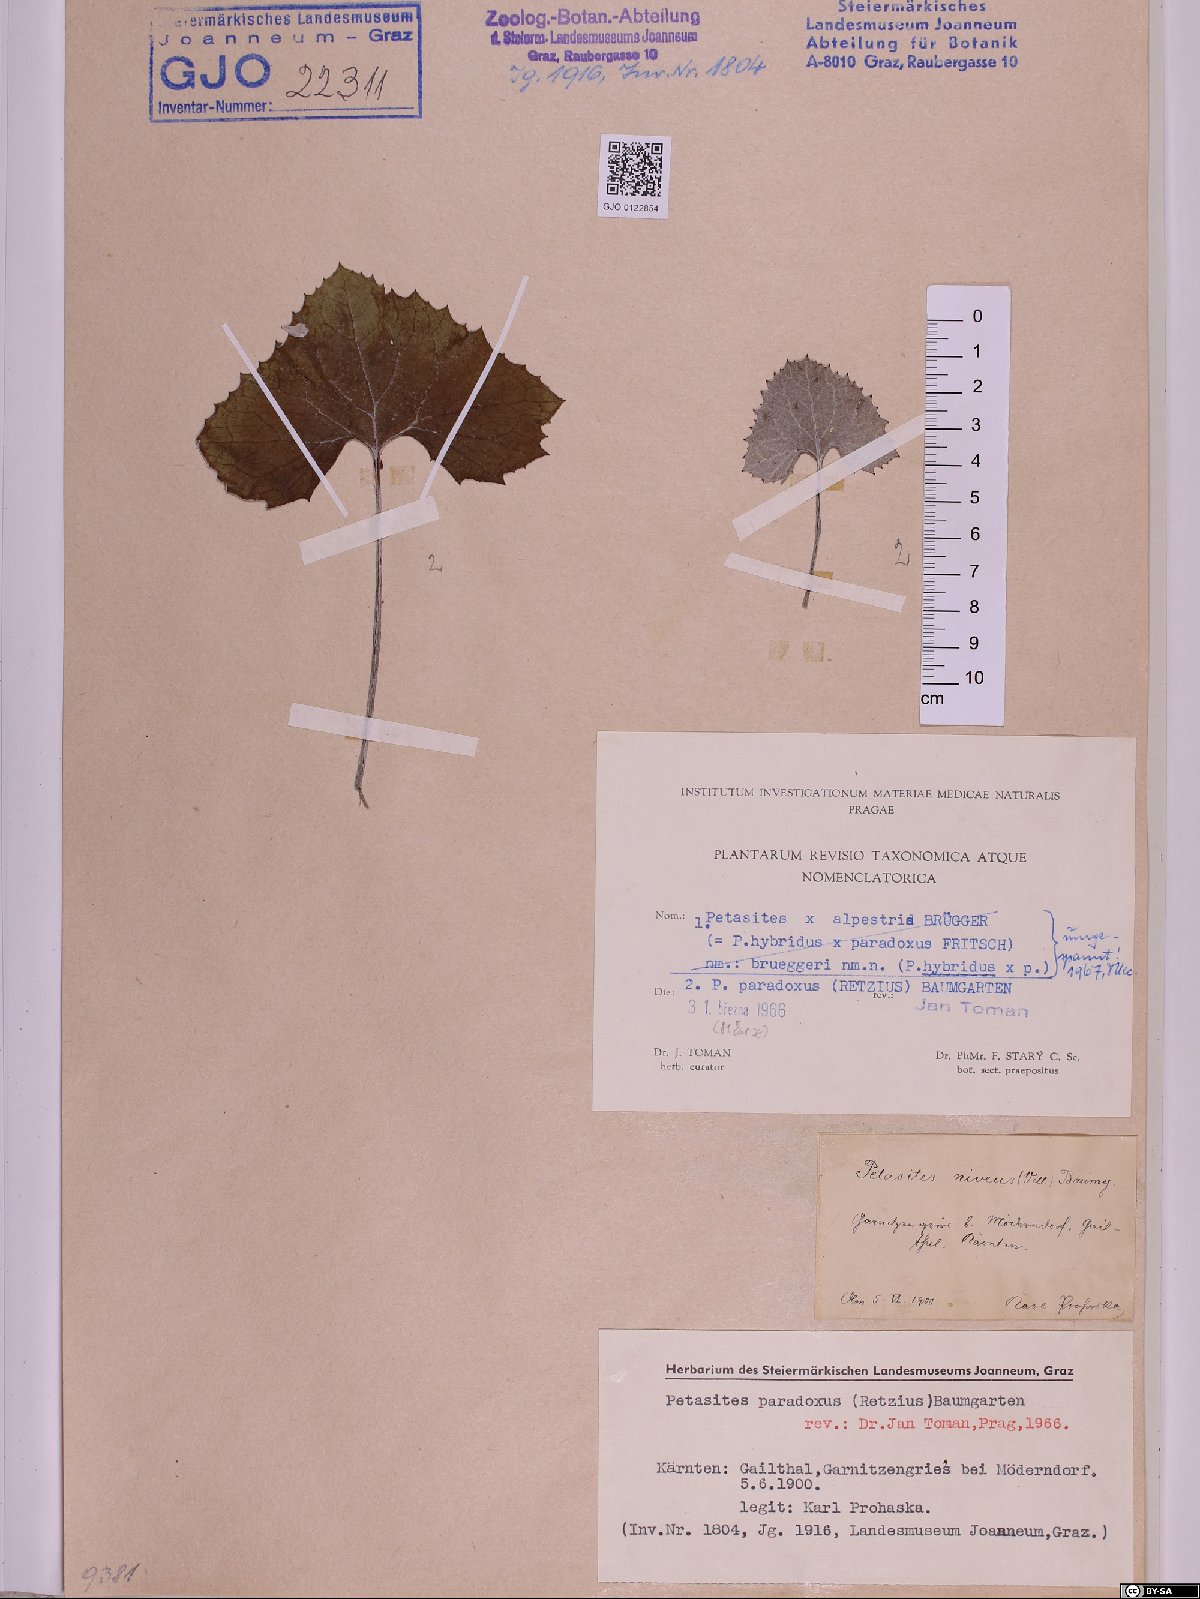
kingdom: Plantae
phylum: Tracheophyta
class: Magnoliopsida
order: Asterales
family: Asteraceae
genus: Petasites
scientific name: Petasites paradoxus
